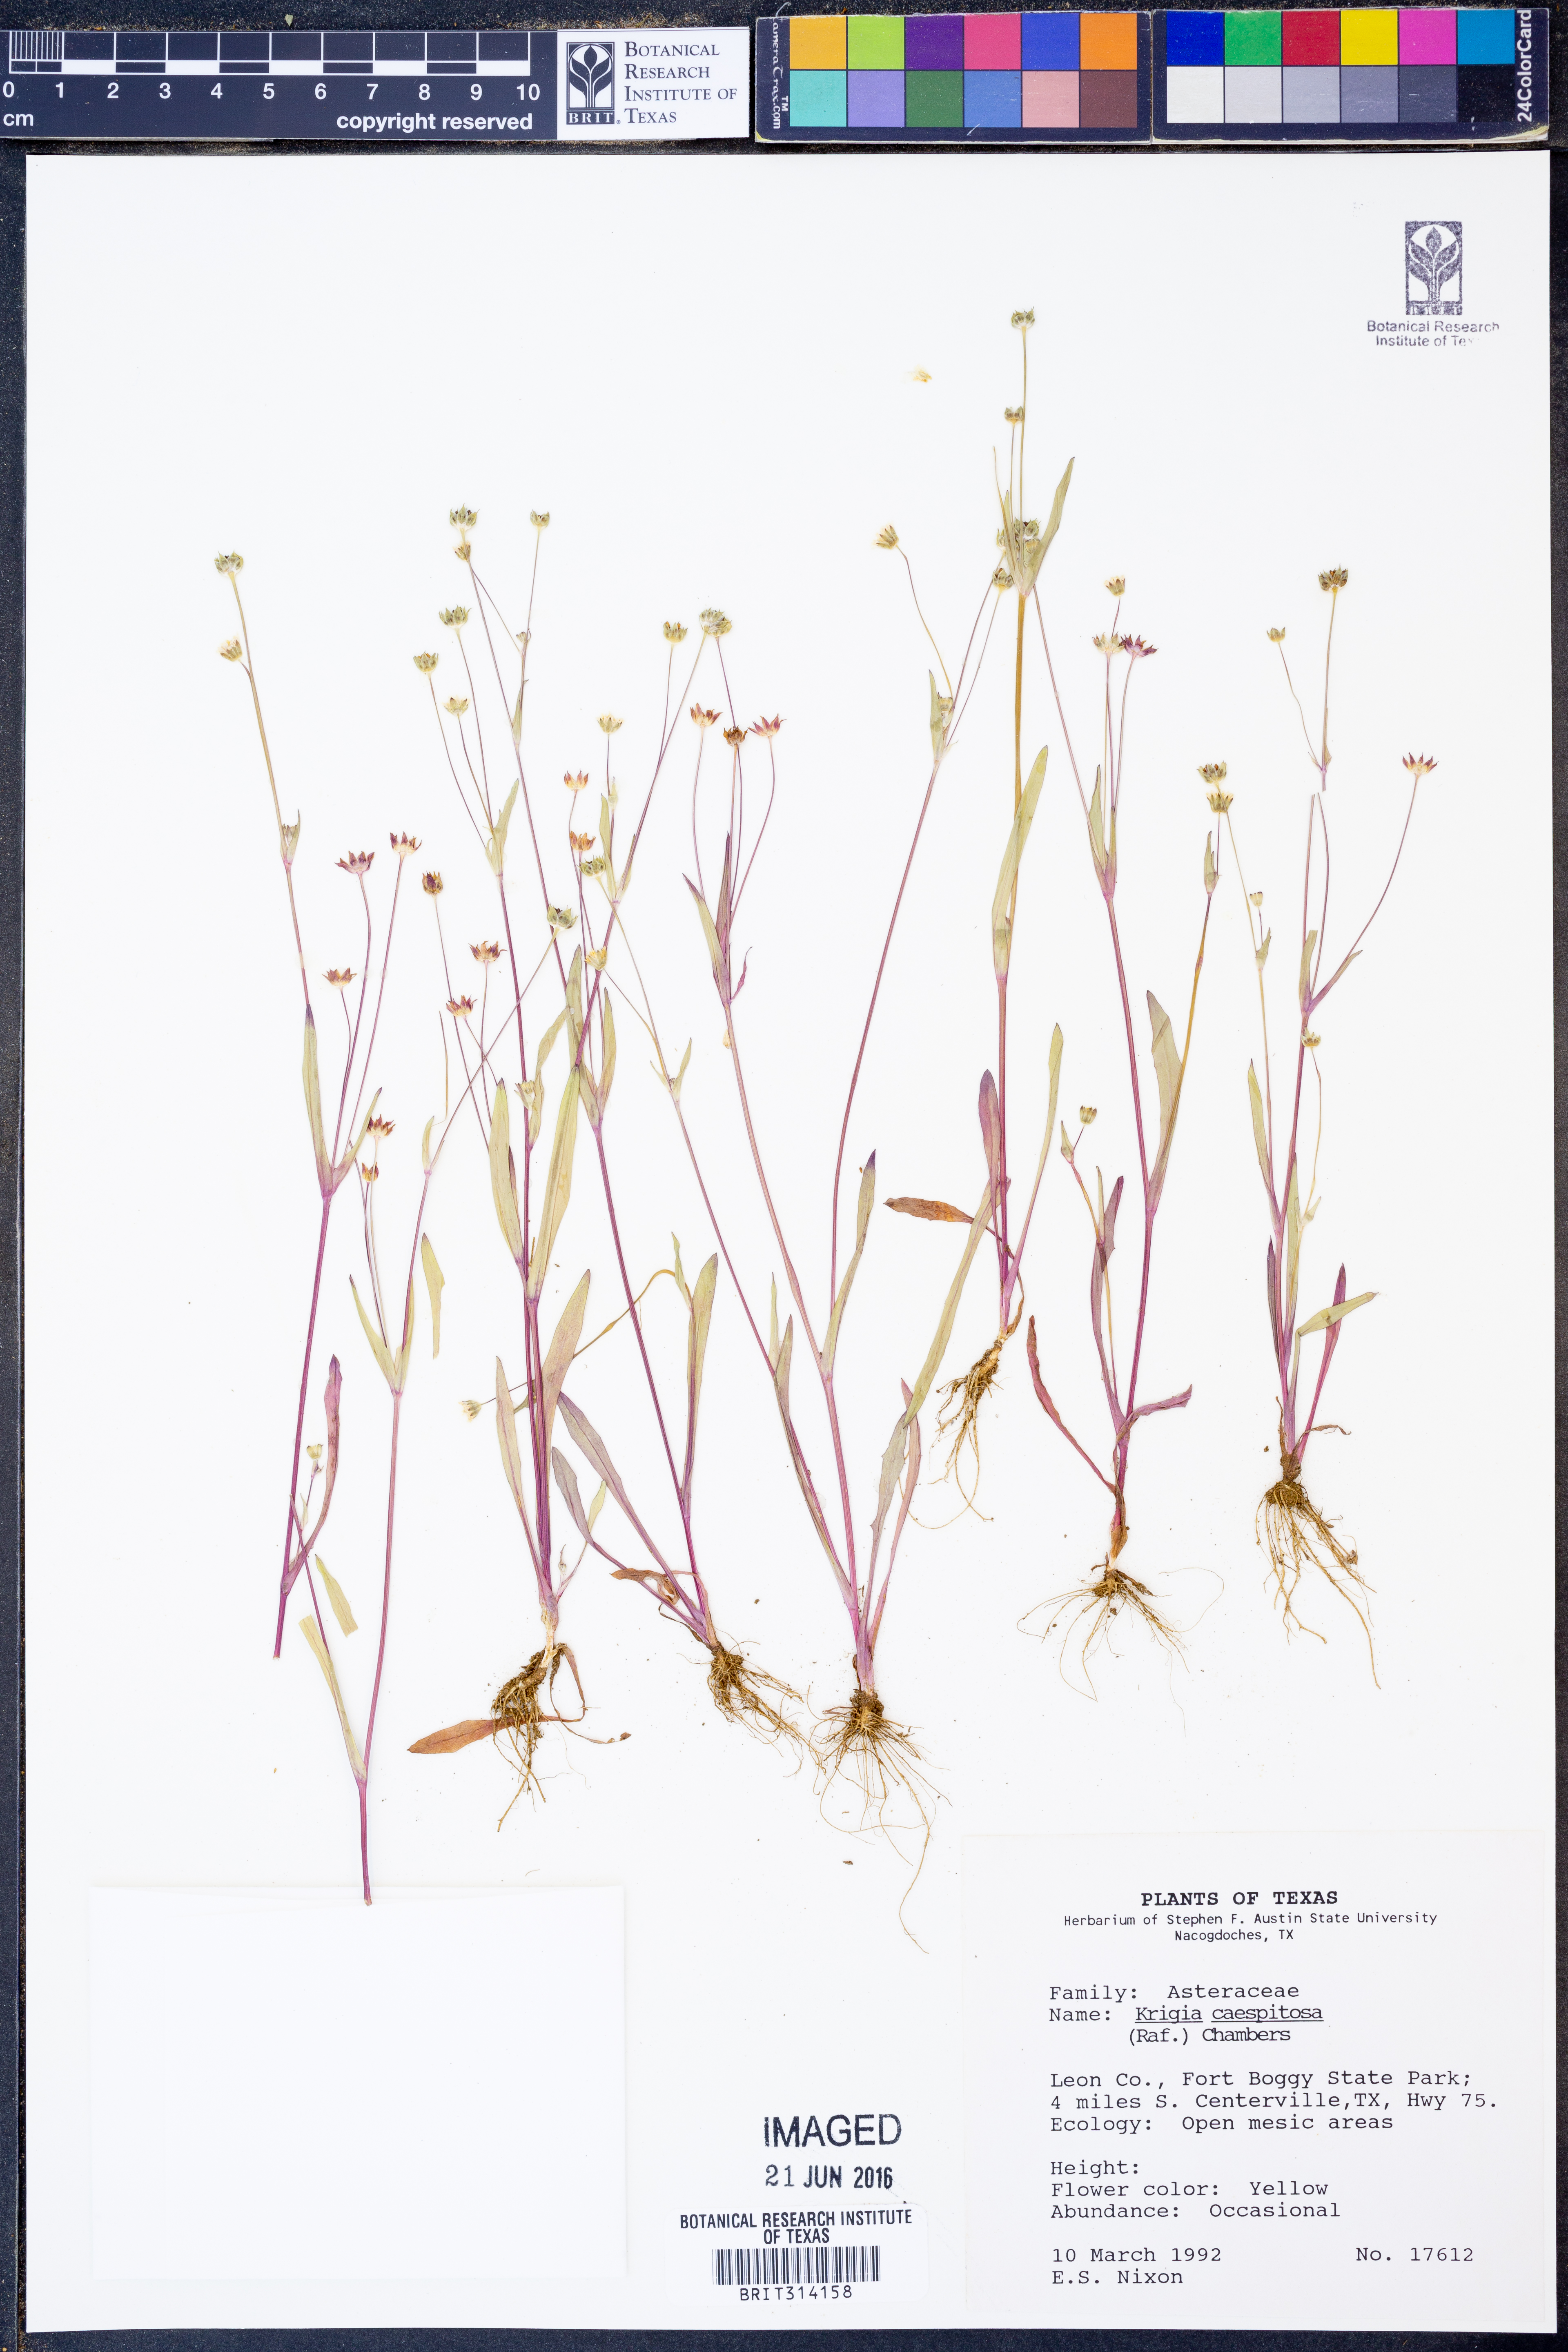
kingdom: Plantae
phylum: Tracheophyta
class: Magnoliopsida
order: Asterales
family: Asteraceae
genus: Krigia
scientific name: Krigia cespitosa
